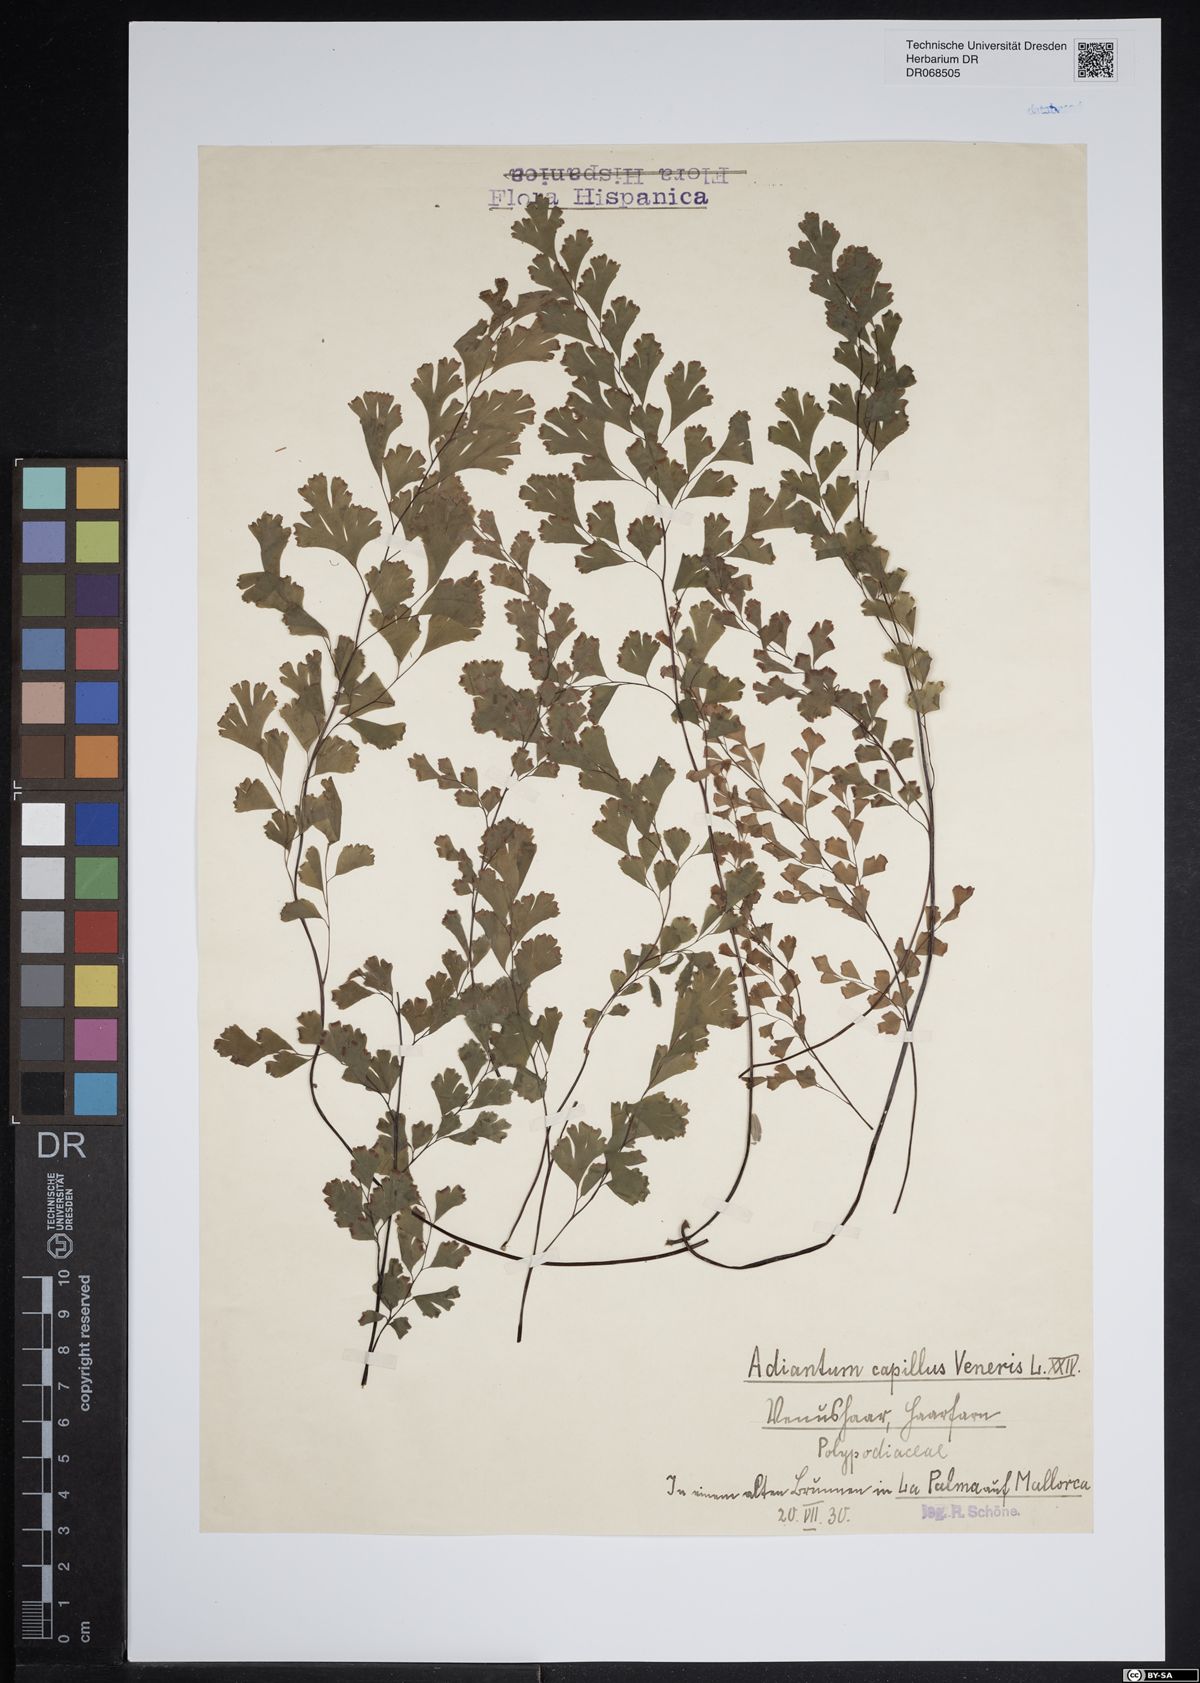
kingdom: Plantae
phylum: Tracheophyta
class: Polypodiopsida
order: Polypodiales
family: Pteridaceae
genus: Adiantum
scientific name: Adiantum capillus-veneris
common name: Maidenhair fern
